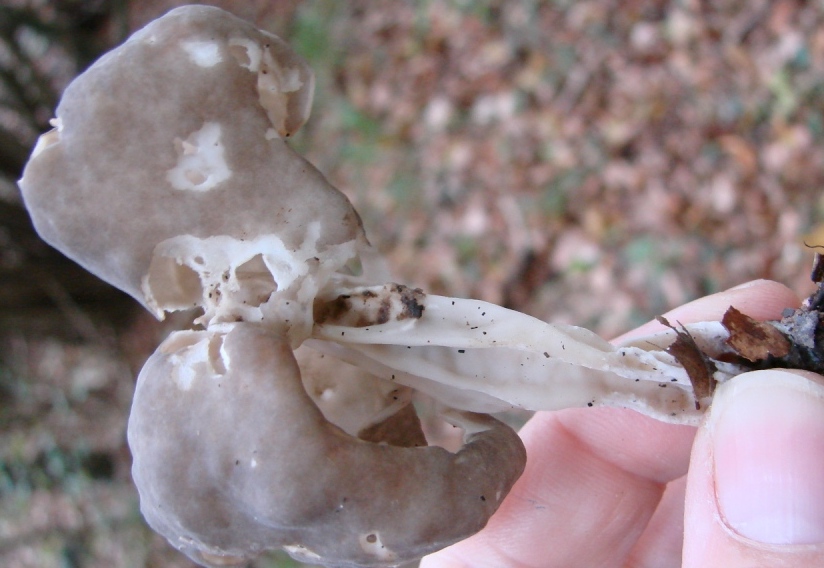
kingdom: Fungi
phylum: Ascomycota
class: Pezizomycetes
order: Pezizales
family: Helvellaceae
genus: Helvella
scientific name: Helvella lacunosa
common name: grubet foldhat
